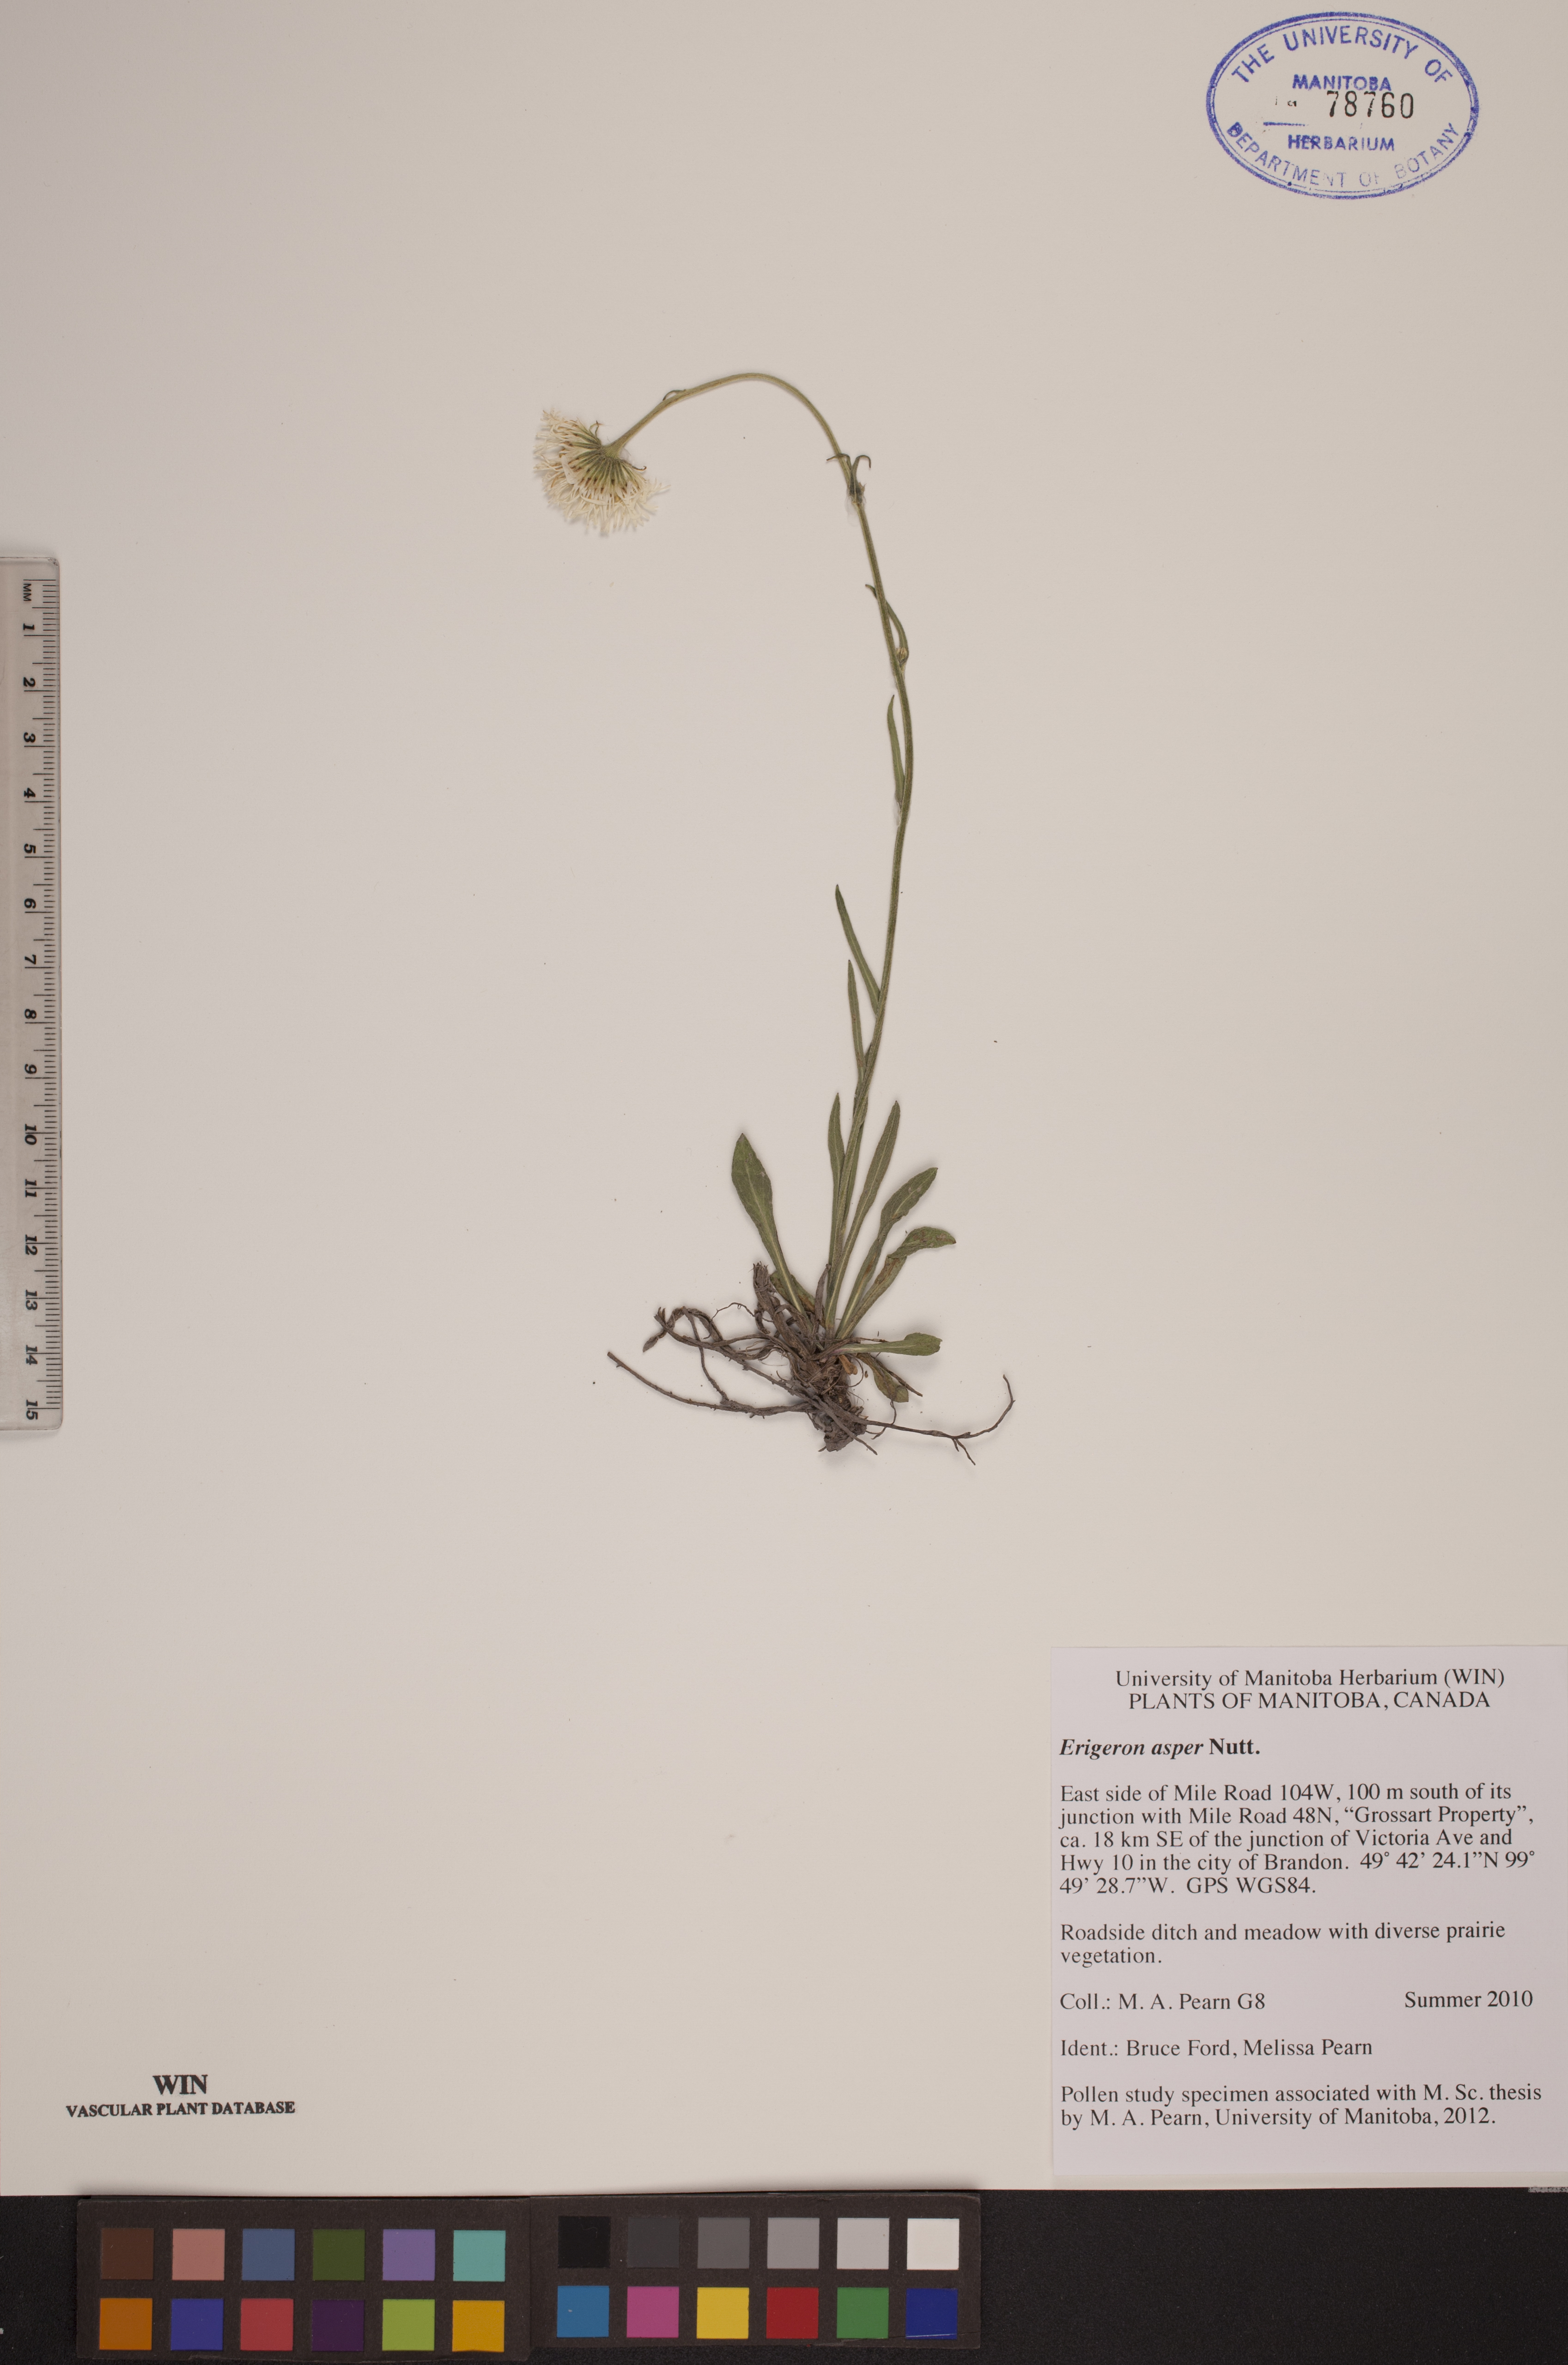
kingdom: Plantae
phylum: Tracheophyta
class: Magnoliopsida
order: Asterales
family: Asteraceae
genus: Erigeron
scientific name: Erigeron glabellus
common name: Smooth fleabane
